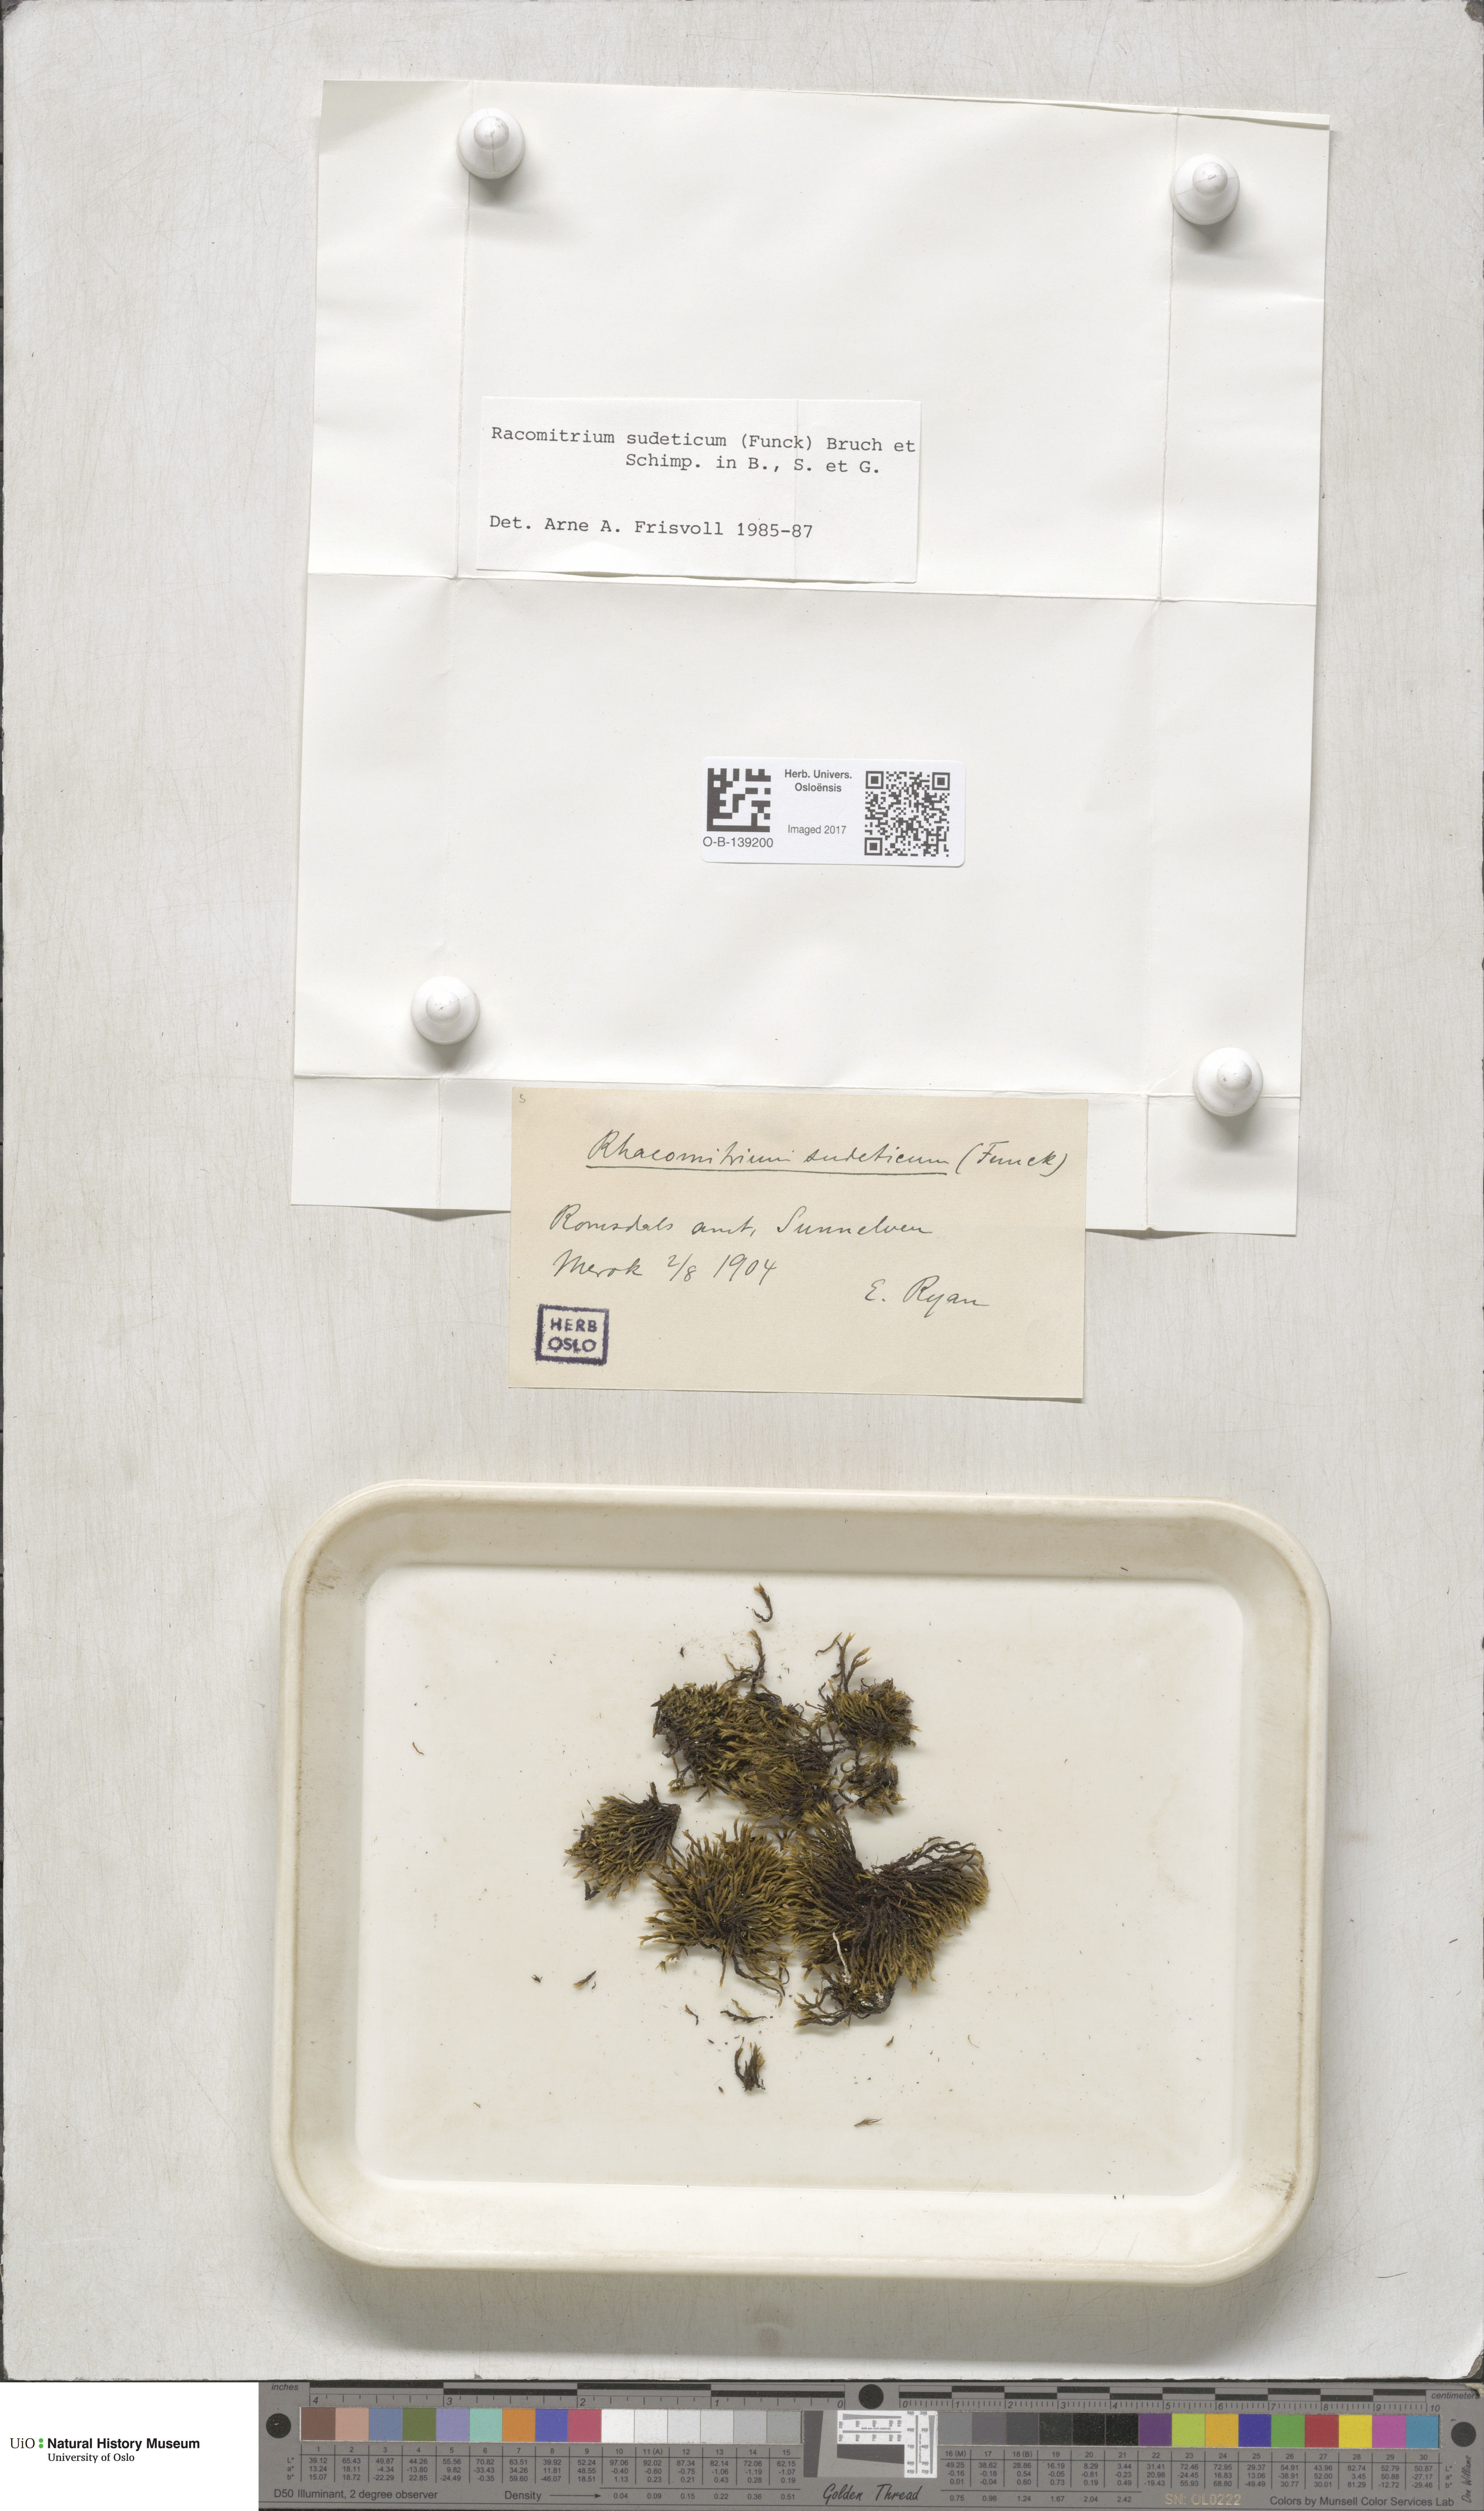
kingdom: Plantae
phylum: Bryophyta
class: Bryopsida
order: Grimmiales
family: Grimmiaceae
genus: Bucklandiella
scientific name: Bucklandiella sudetica
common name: Slender fringe-moss
